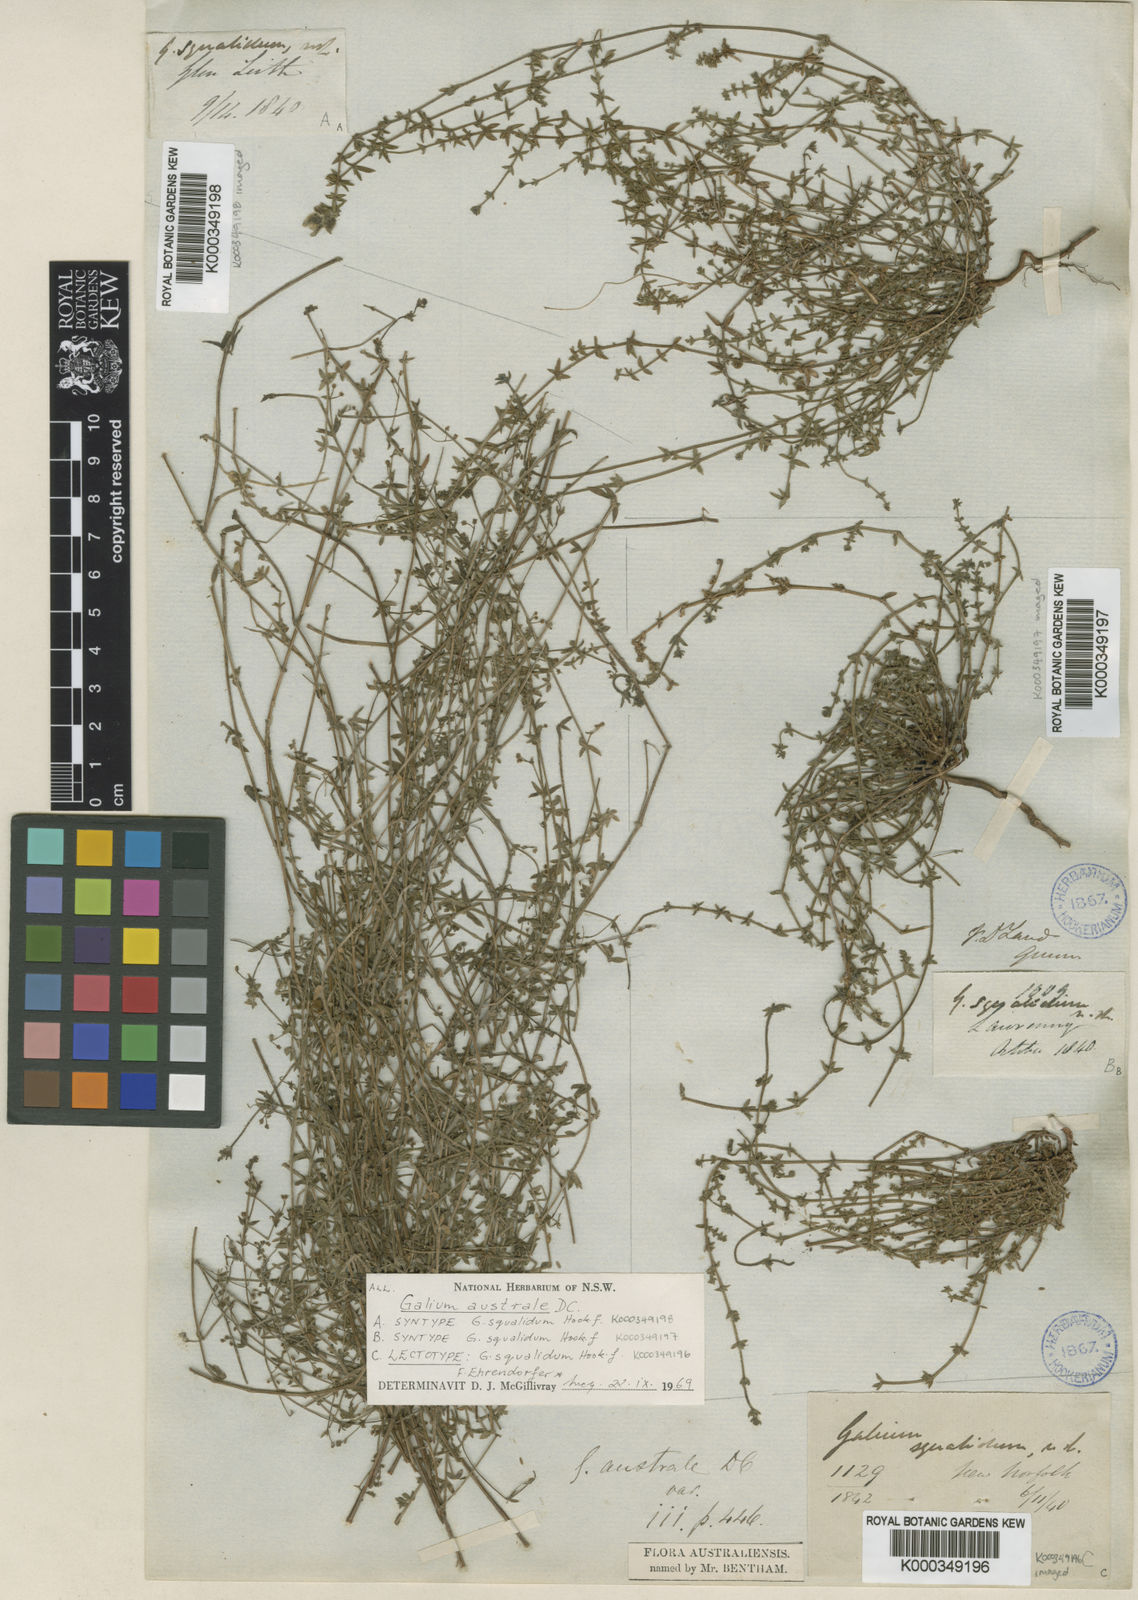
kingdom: Plantae
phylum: Tracheophyta
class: Magnoliopsida
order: Gentianales
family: Rubiaceae
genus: Galium
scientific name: Galium australe
